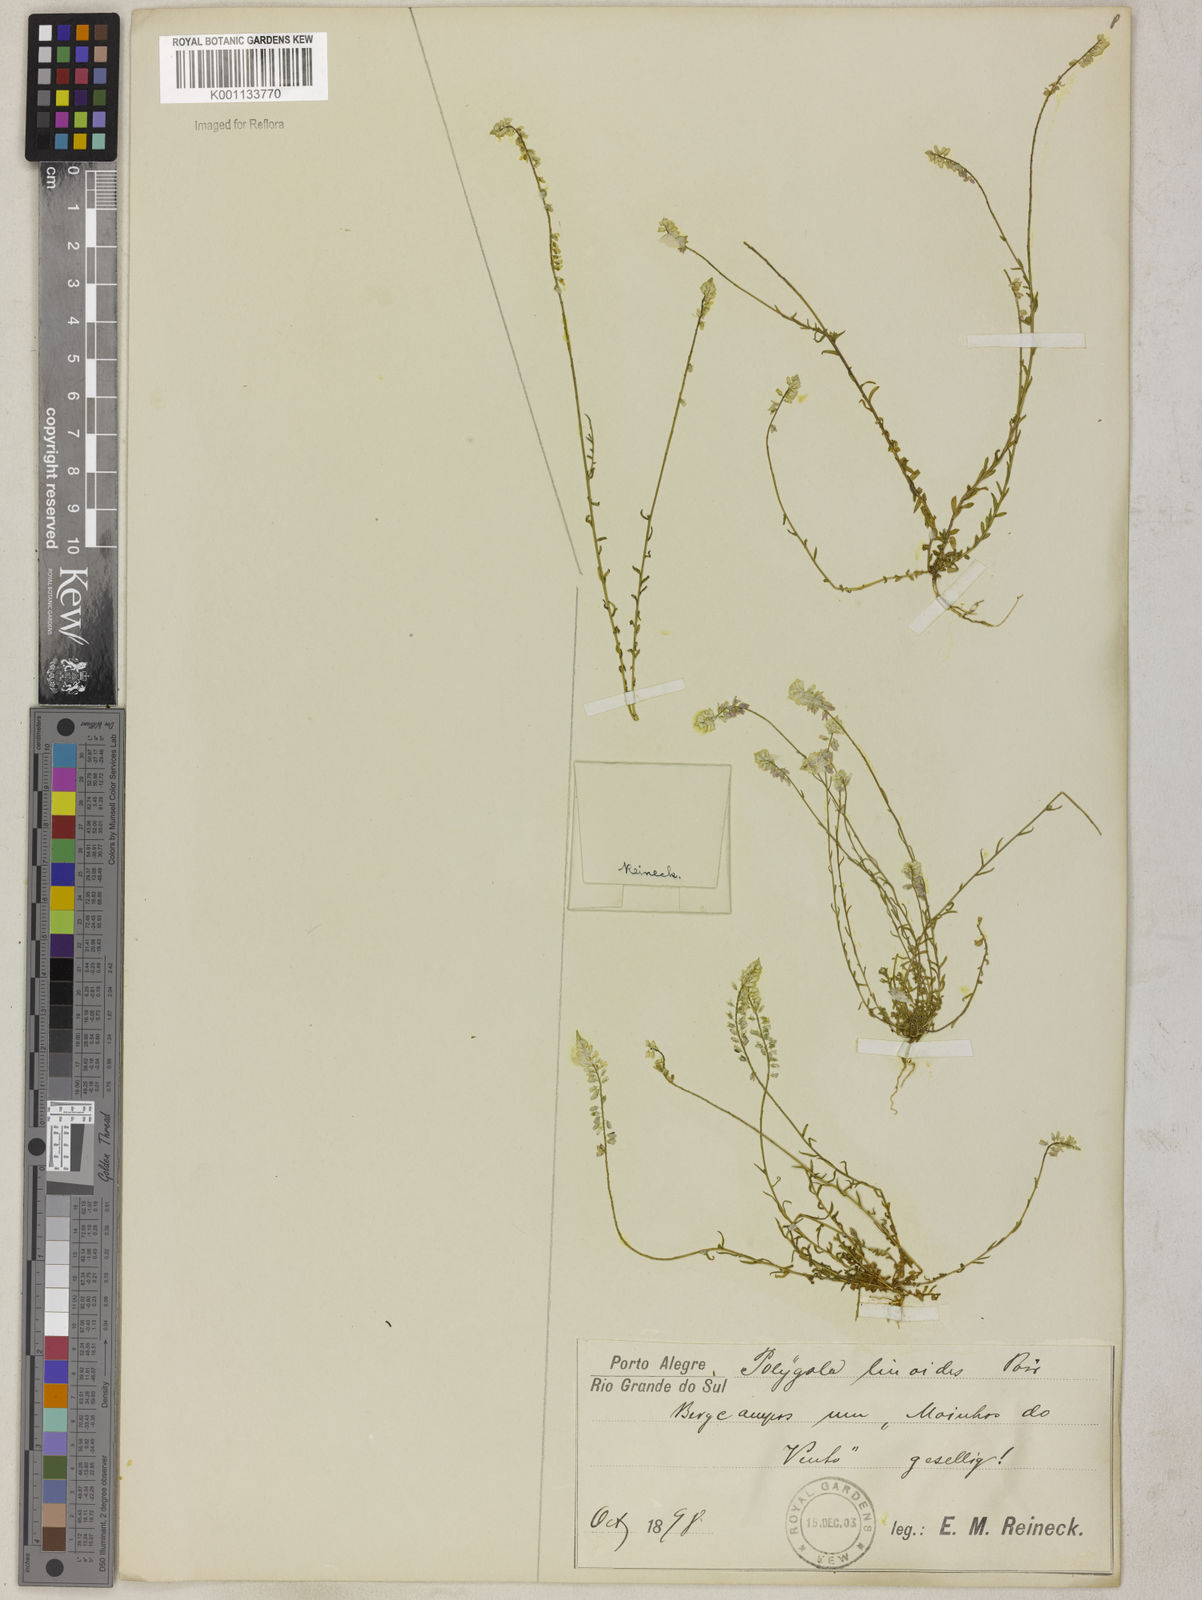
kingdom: Plantae
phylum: Tracheophyta
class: Magnoliopsida
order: Fabales
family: Polygalaceae
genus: Polygala
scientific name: Polygala linoides
